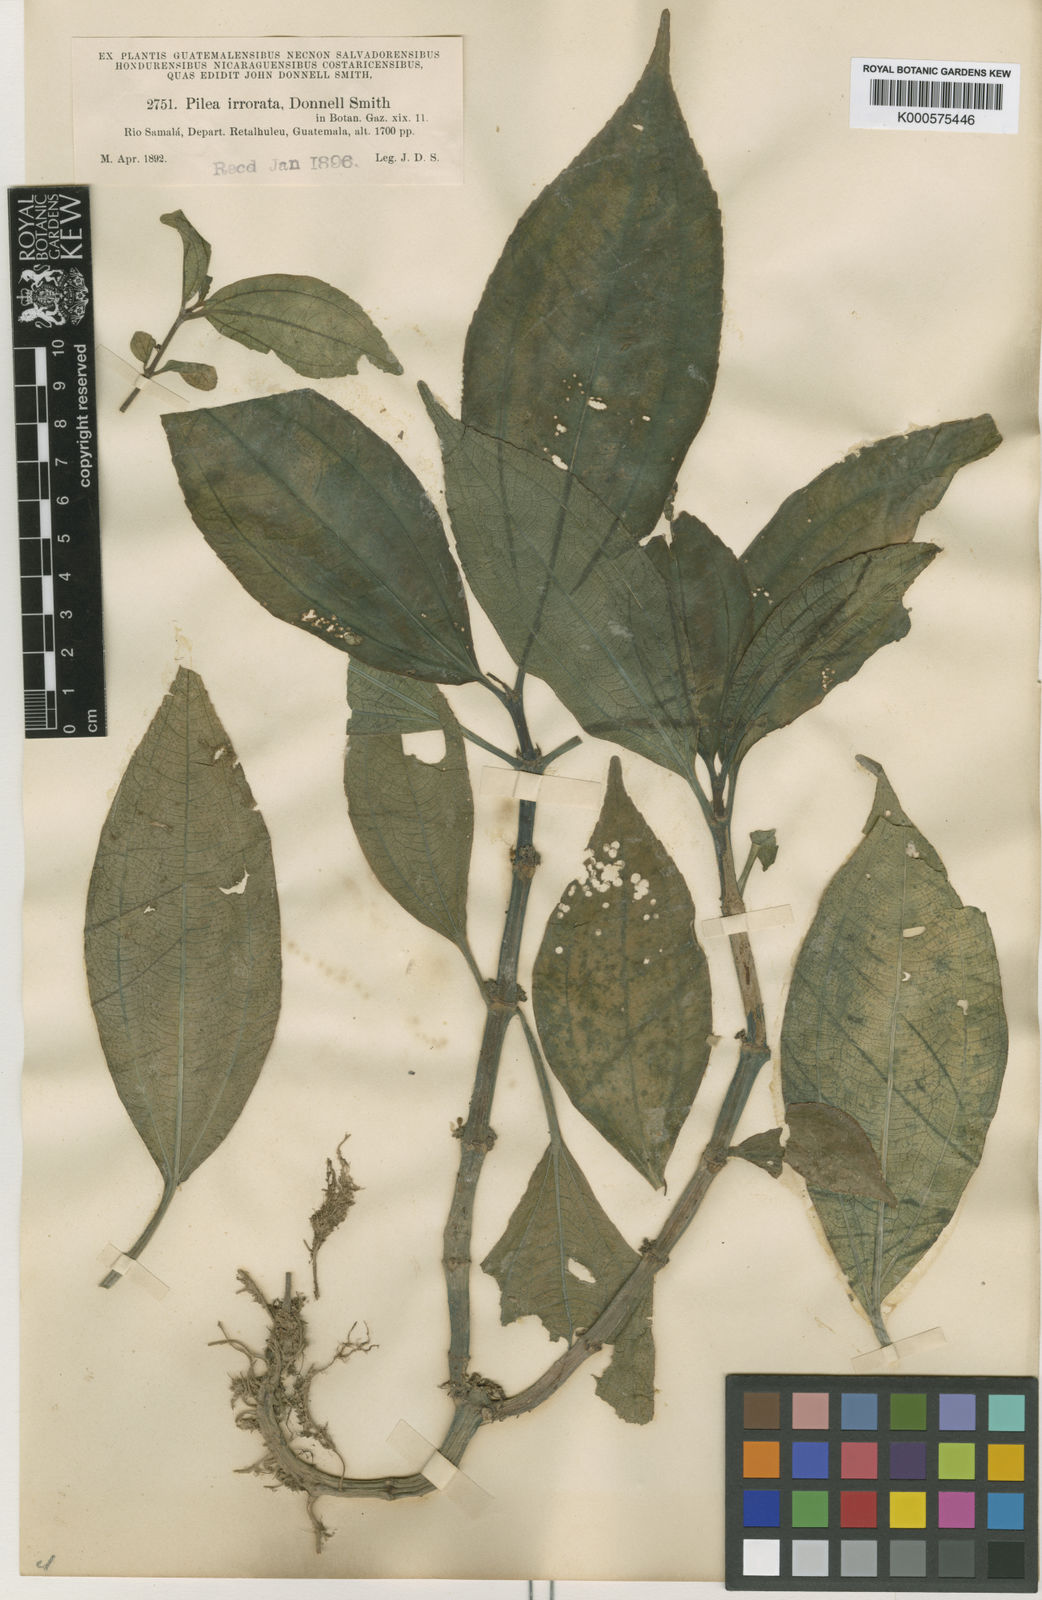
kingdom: Plantae
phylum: Tracheophyta
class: Magnoliopsida
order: Rosales
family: Urticaceae
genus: Pilea
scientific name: Pilea irrorata
